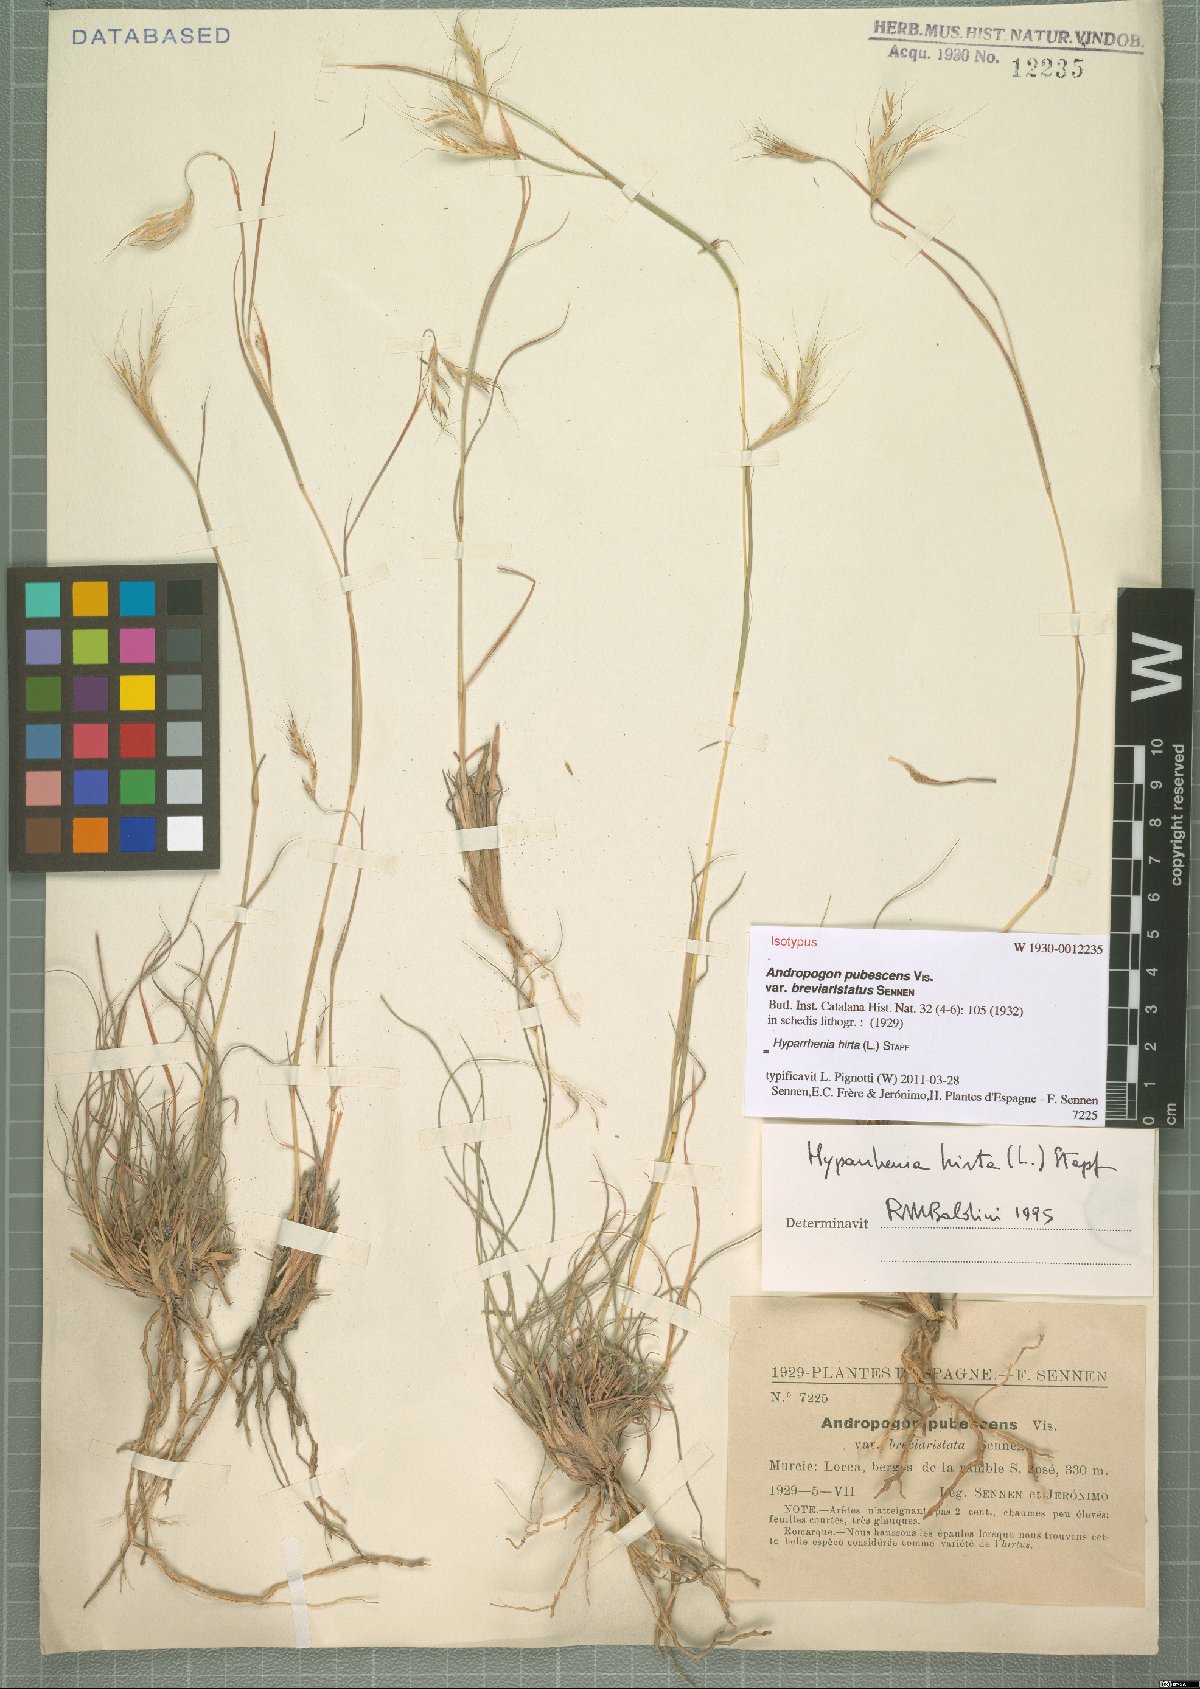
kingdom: Plantae
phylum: Tracheophyta
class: Liliopsida
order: Poales
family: Poaceae
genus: Hyparrhenia
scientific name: Hyparrhenia hirta
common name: Thatching grass
